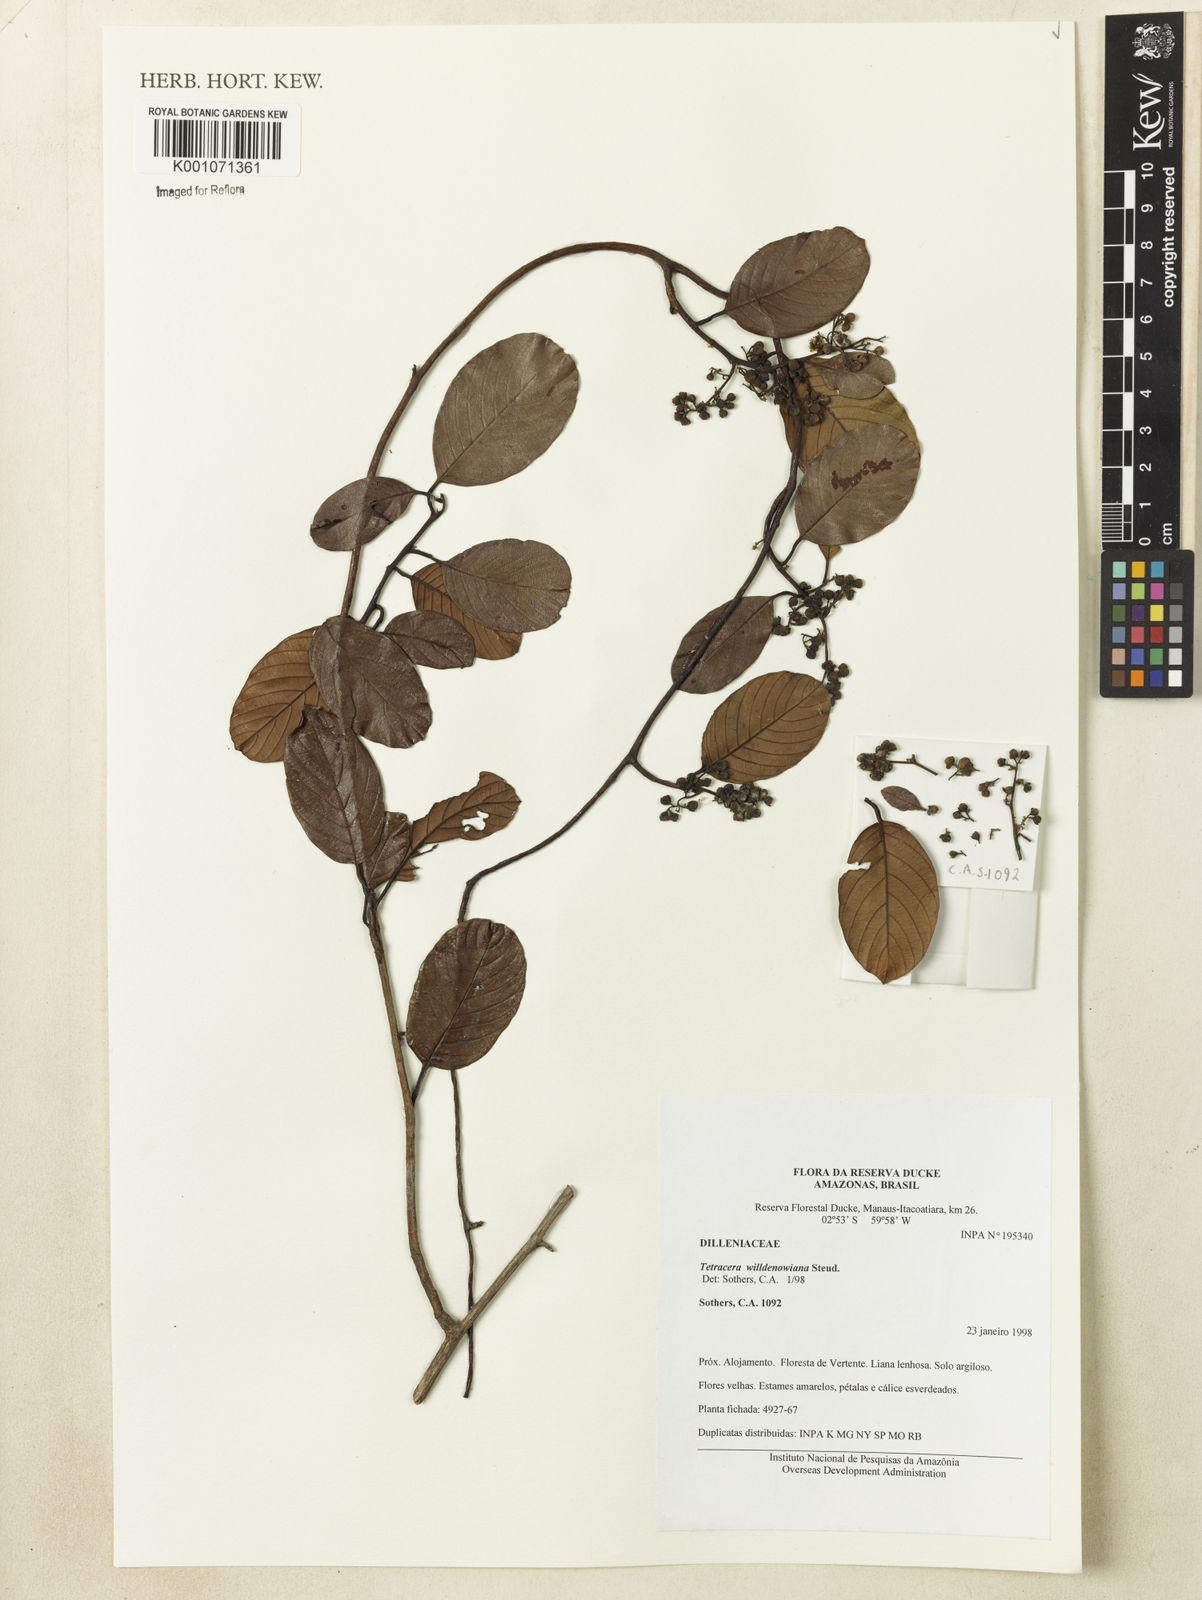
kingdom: Plantae
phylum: Tracheophyta
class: Magnoliopsida
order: Dilleniales
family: Dilleniaceae
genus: Tetracera
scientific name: Tetracera willdenowiana
